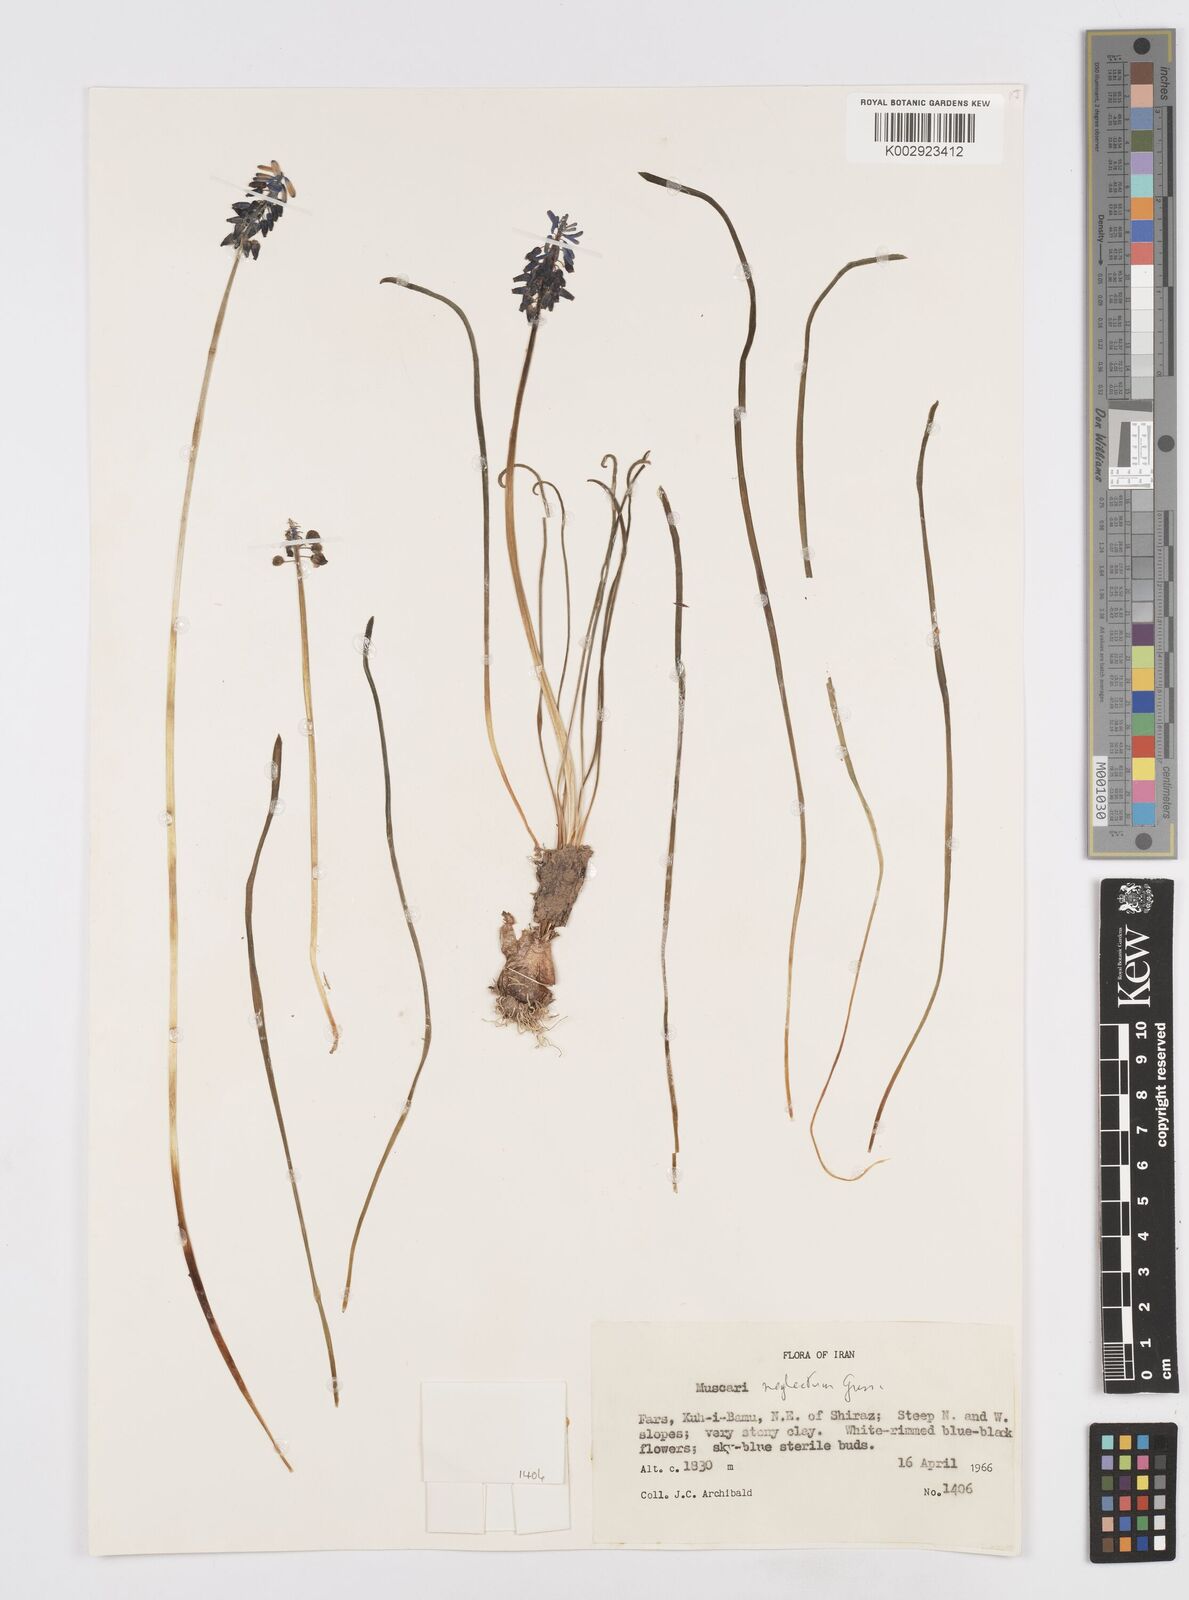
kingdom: Plantae
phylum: Tracheophyta
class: Liliopsida
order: Asparagales
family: Asparagaceae
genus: Muscari
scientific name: Muscari neglectum
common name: Grape-hyacinth
